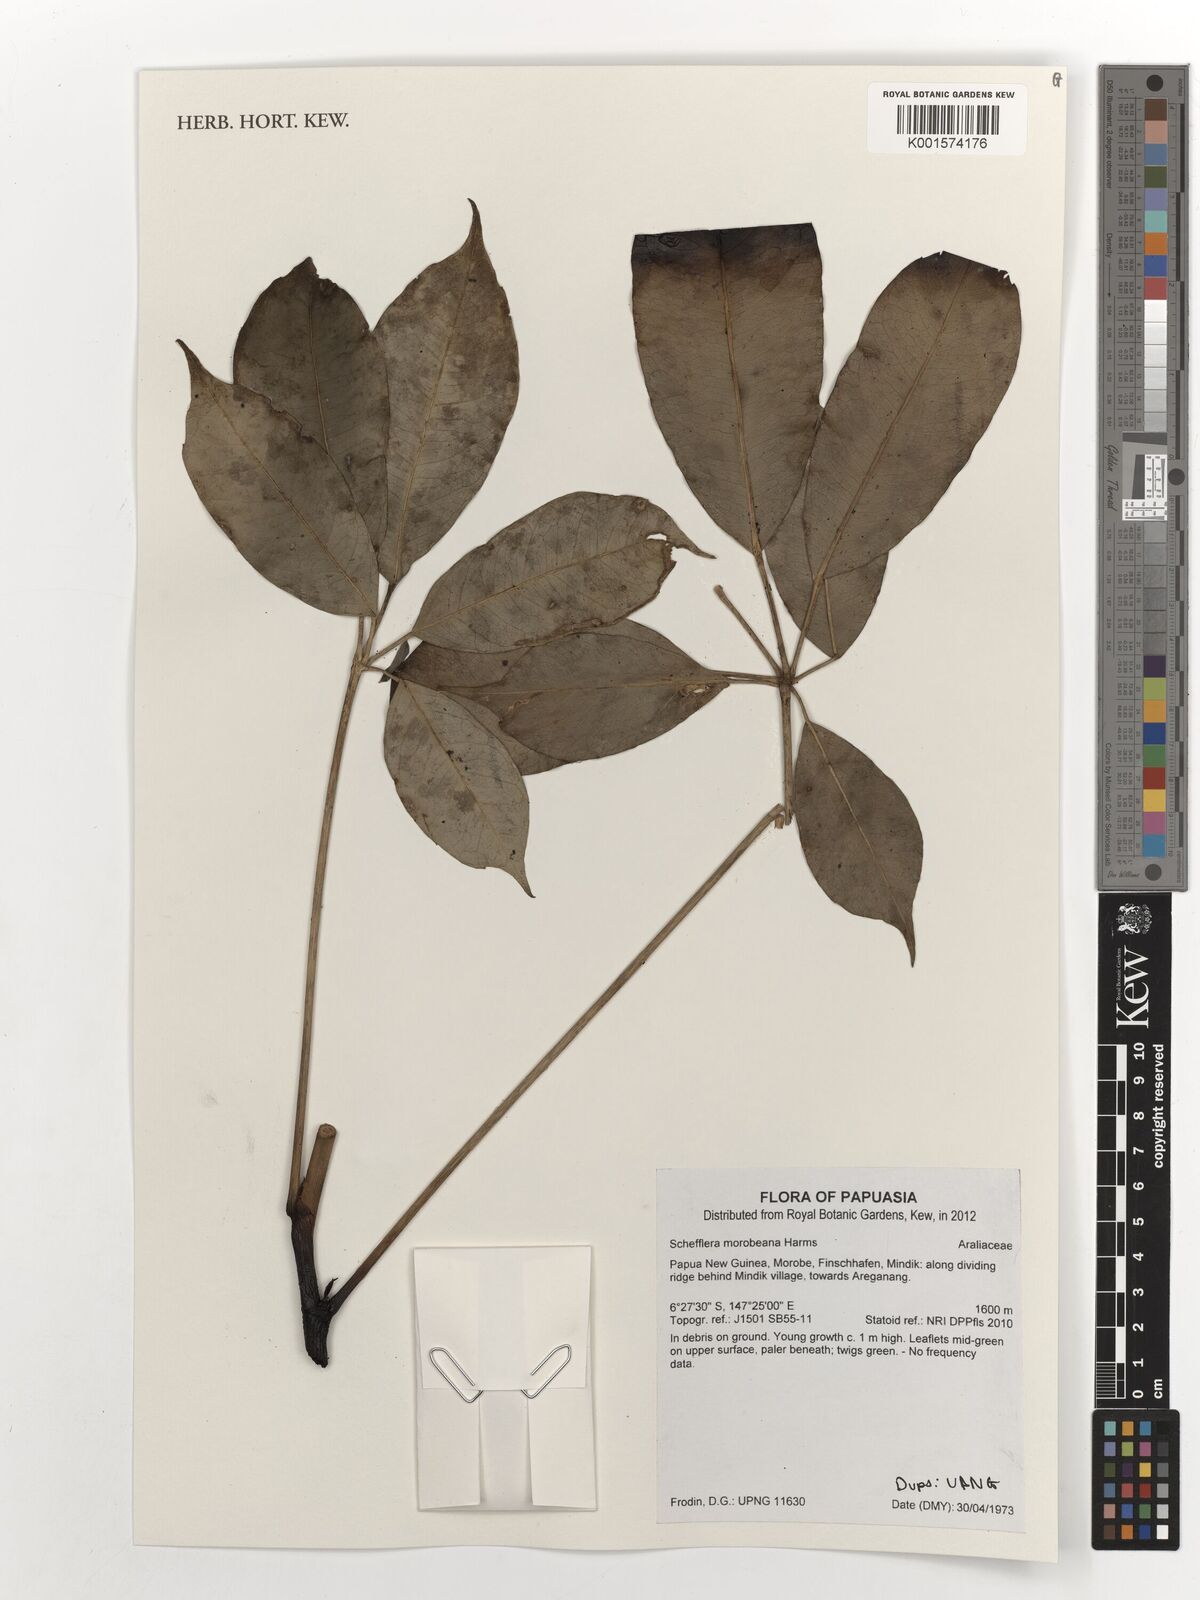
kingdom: Plantae
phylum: Tracheophyta
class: Magnoliopsida
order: Apiales
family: Araliaceae
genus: Heptapleurum
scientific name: Heptapleurum morobeanum
